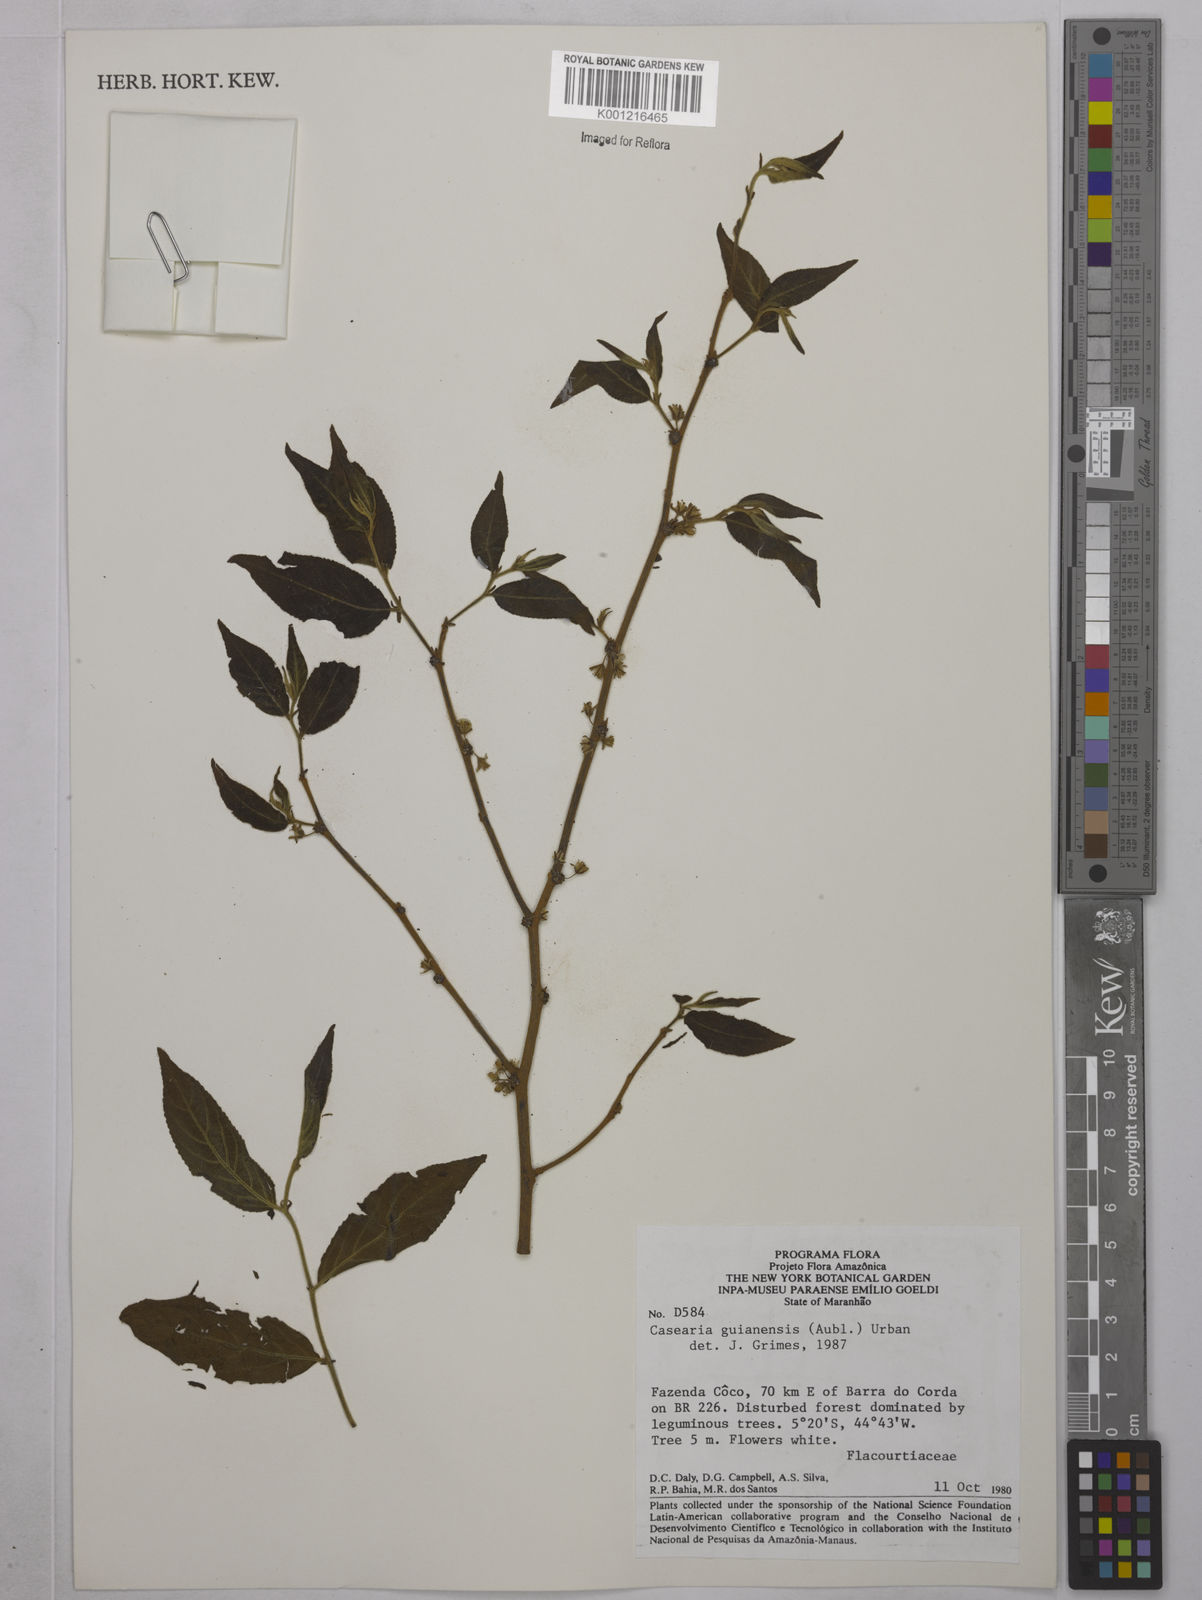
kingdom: Plantae
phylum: Tracheophyta
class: Magnoliopsida
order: Malpighiales
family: Salicaceae
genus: Casearia
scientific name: Casearia guianensis
